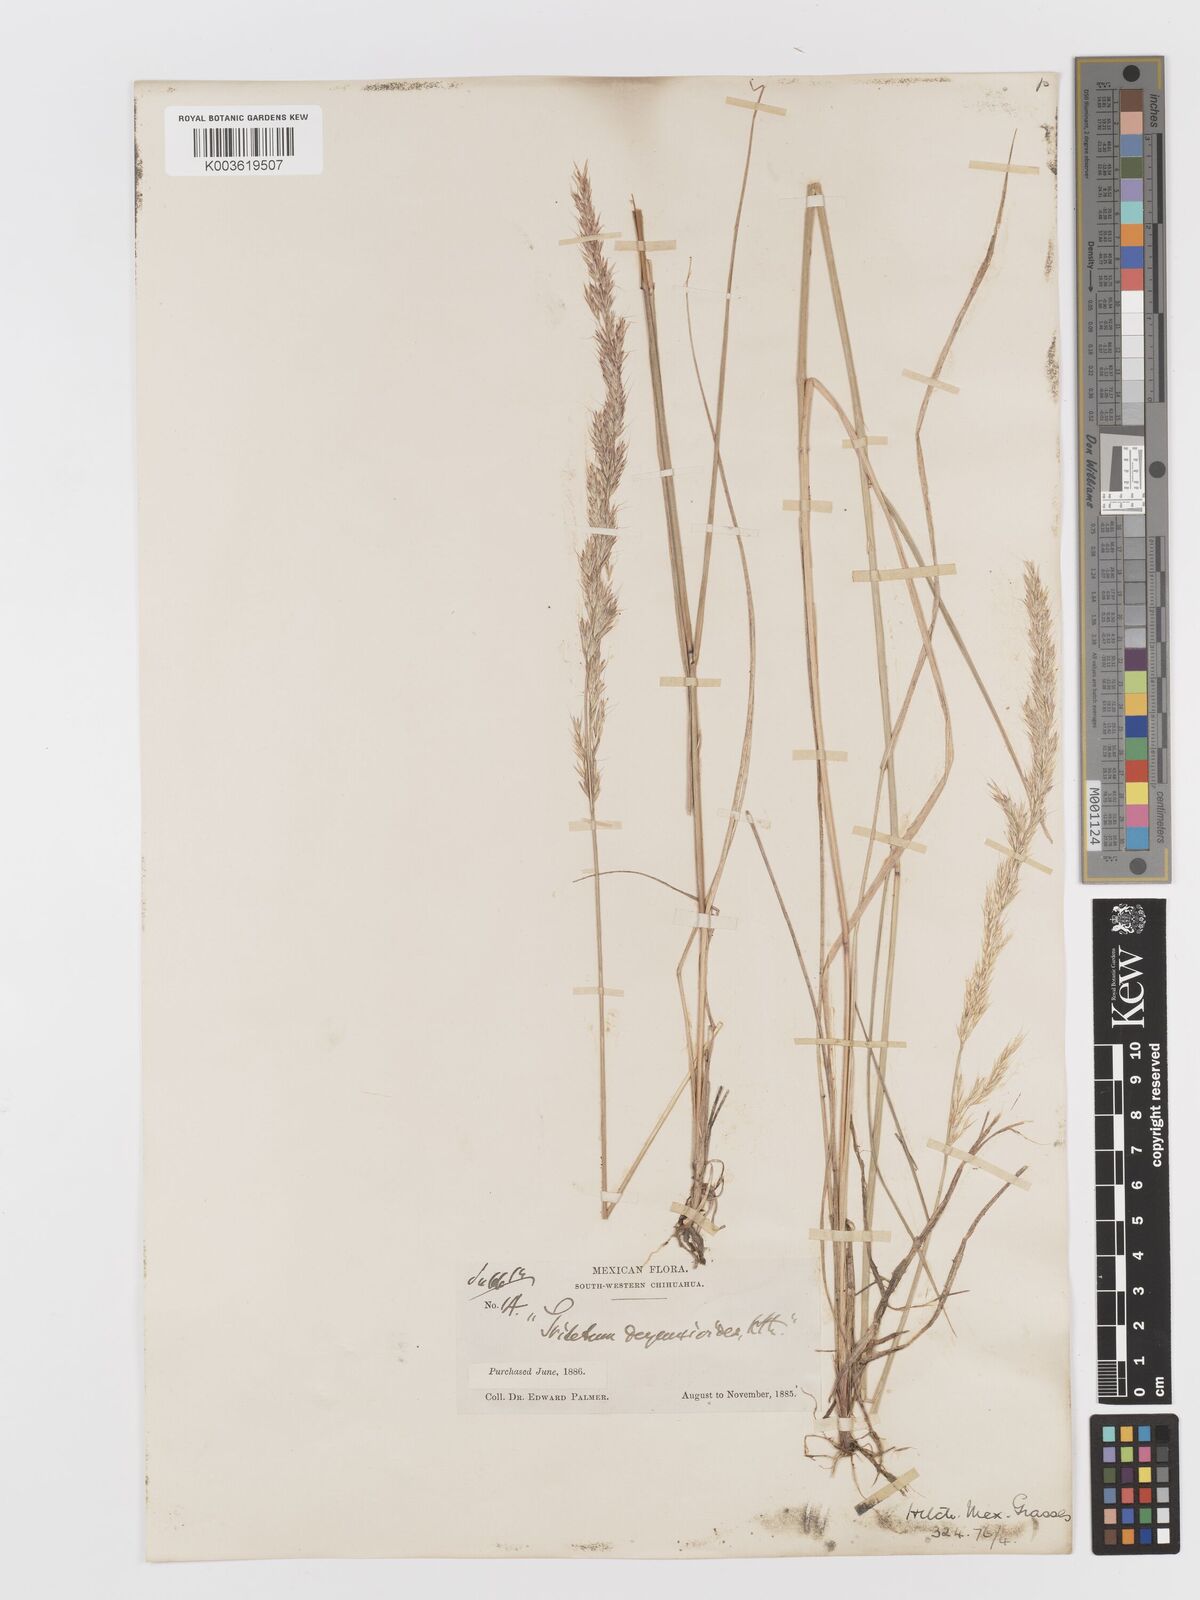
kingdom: Plantae
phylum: Tracheophyta
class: Liliopsida
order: Poales
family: Poaceae
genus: Peyritschia
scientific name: Peyritschia deyeuxioides
